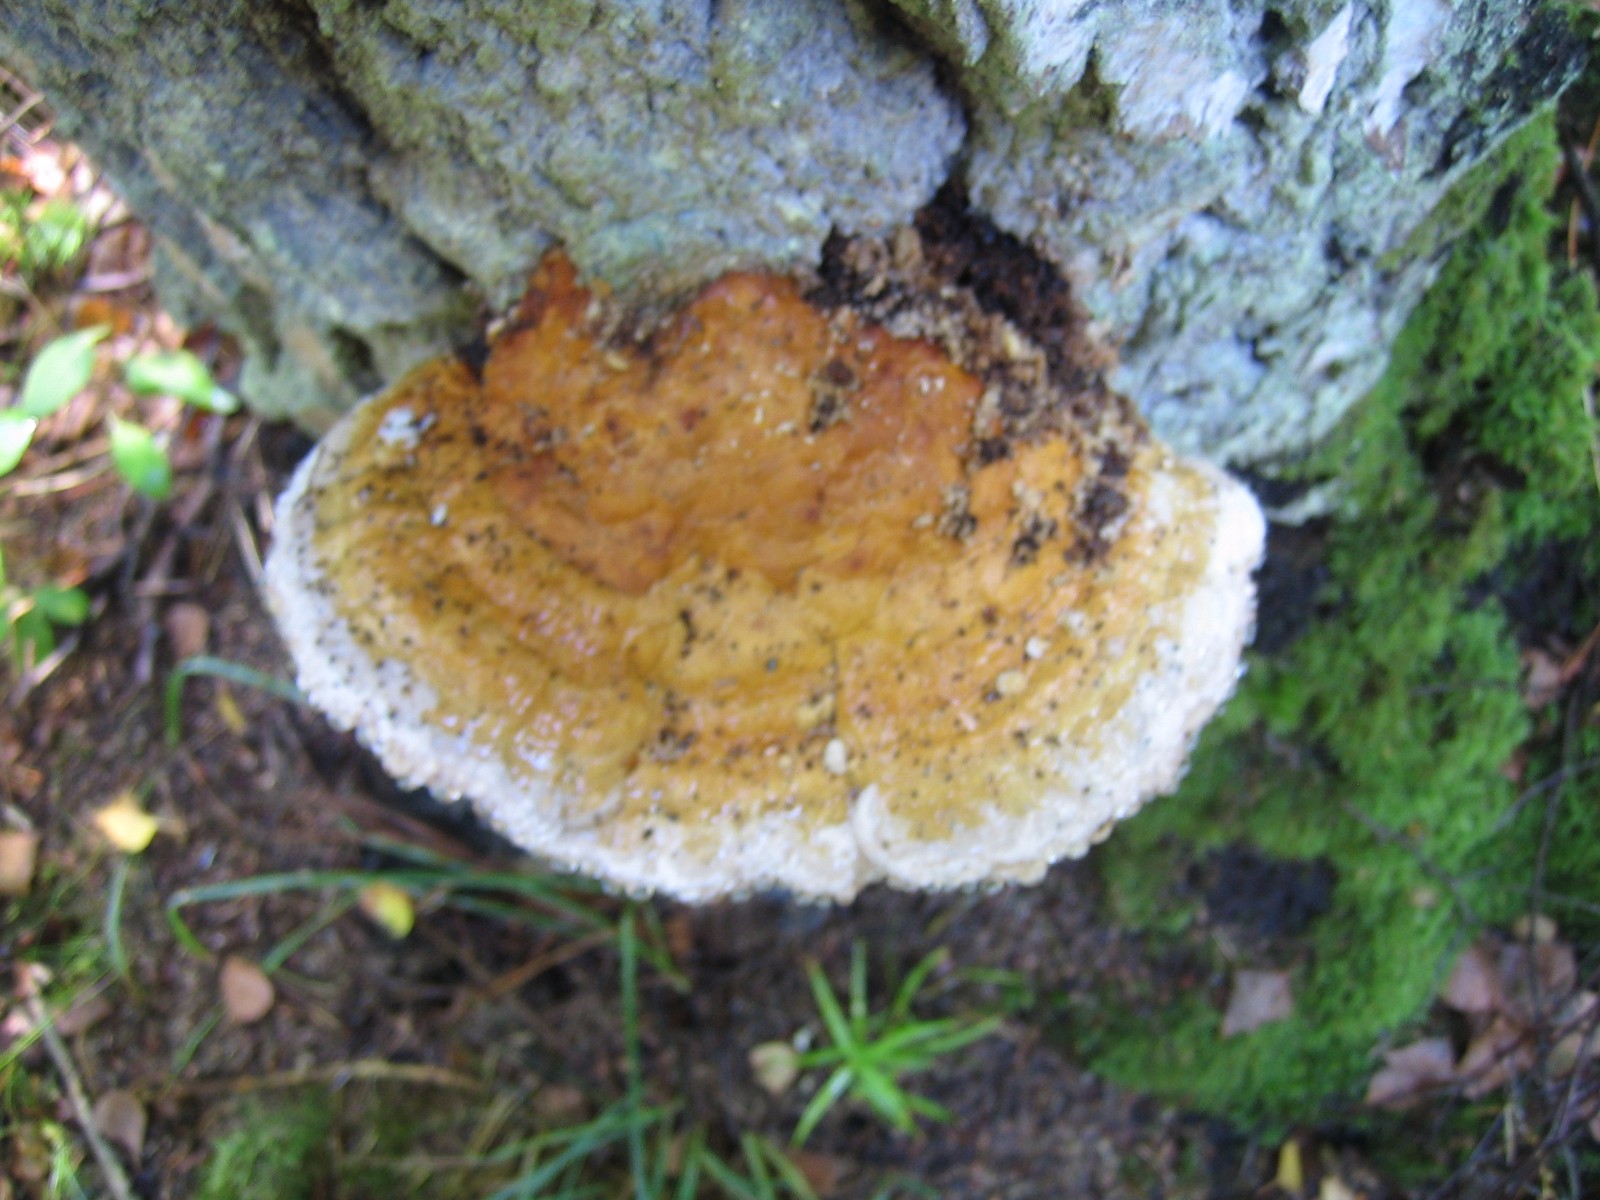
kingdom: Fungi
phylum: Basidiomycota
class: Agaricomycetes
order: Polyporales
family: Fomitopsidaceae
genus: Fomitopsis
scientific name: Fomitopsis pinicola
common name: randbæltet hovporesvamp
